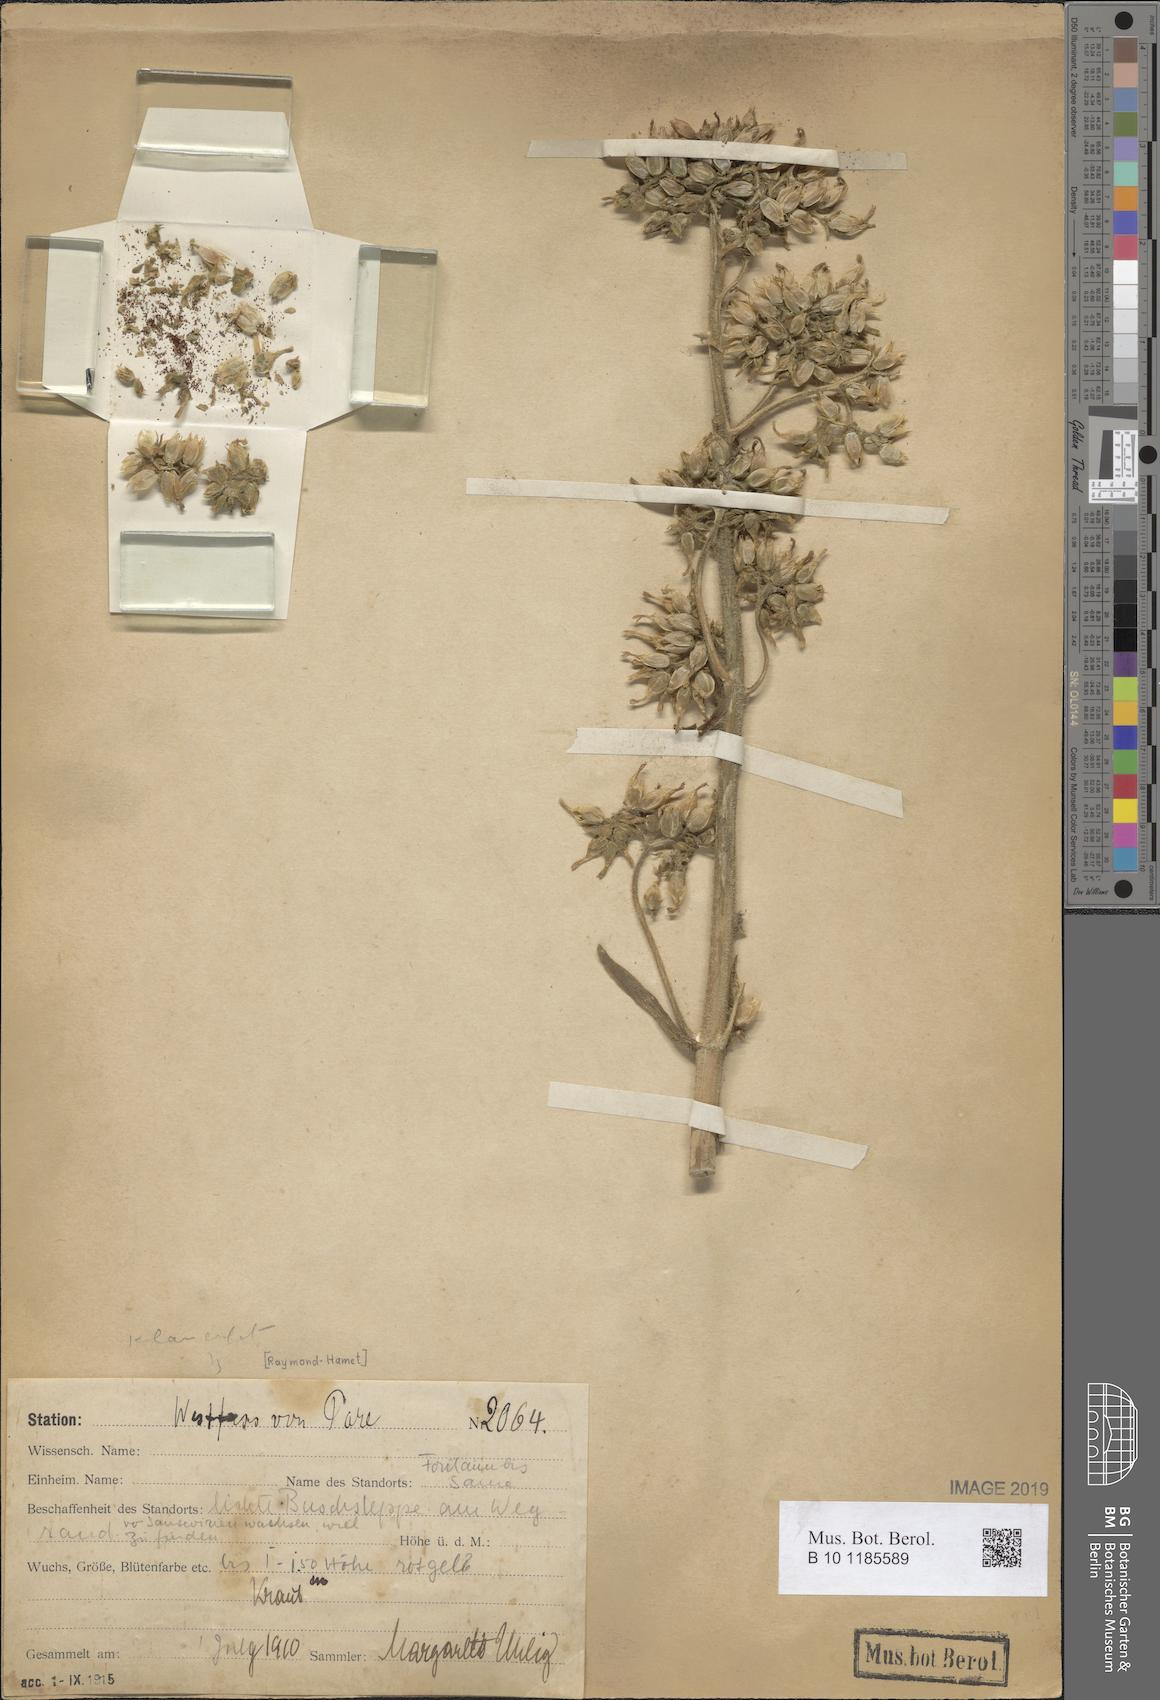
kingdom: Plantae
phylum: Tracheophyta
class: Magnoliopsida
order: Saxifragales
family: Crassulaceae
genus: Kalanchoe
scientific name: Kalanchoe lanceolata
